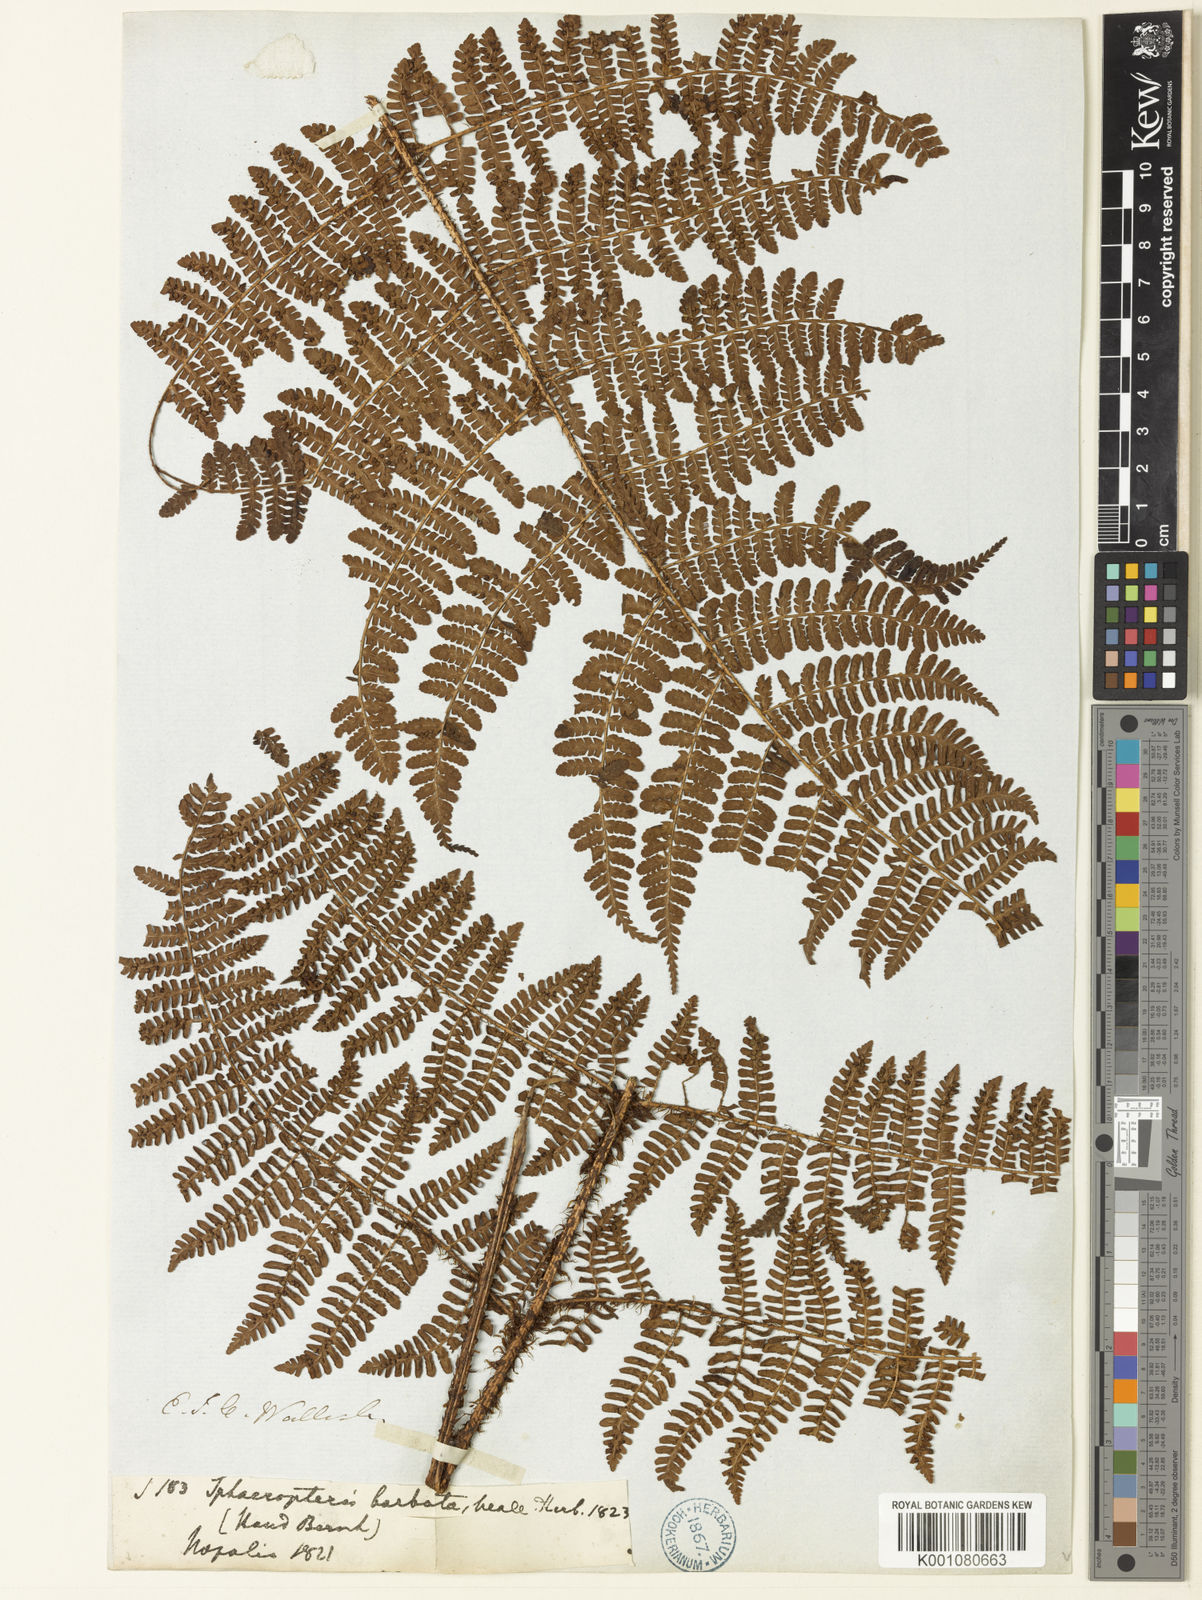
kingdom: Plantae
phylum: Tracheophyta
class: Polypodiopsida
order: Polypodiales
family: Dryopteridaceae
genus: Dryopteris
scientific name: Dryopteris peranema
